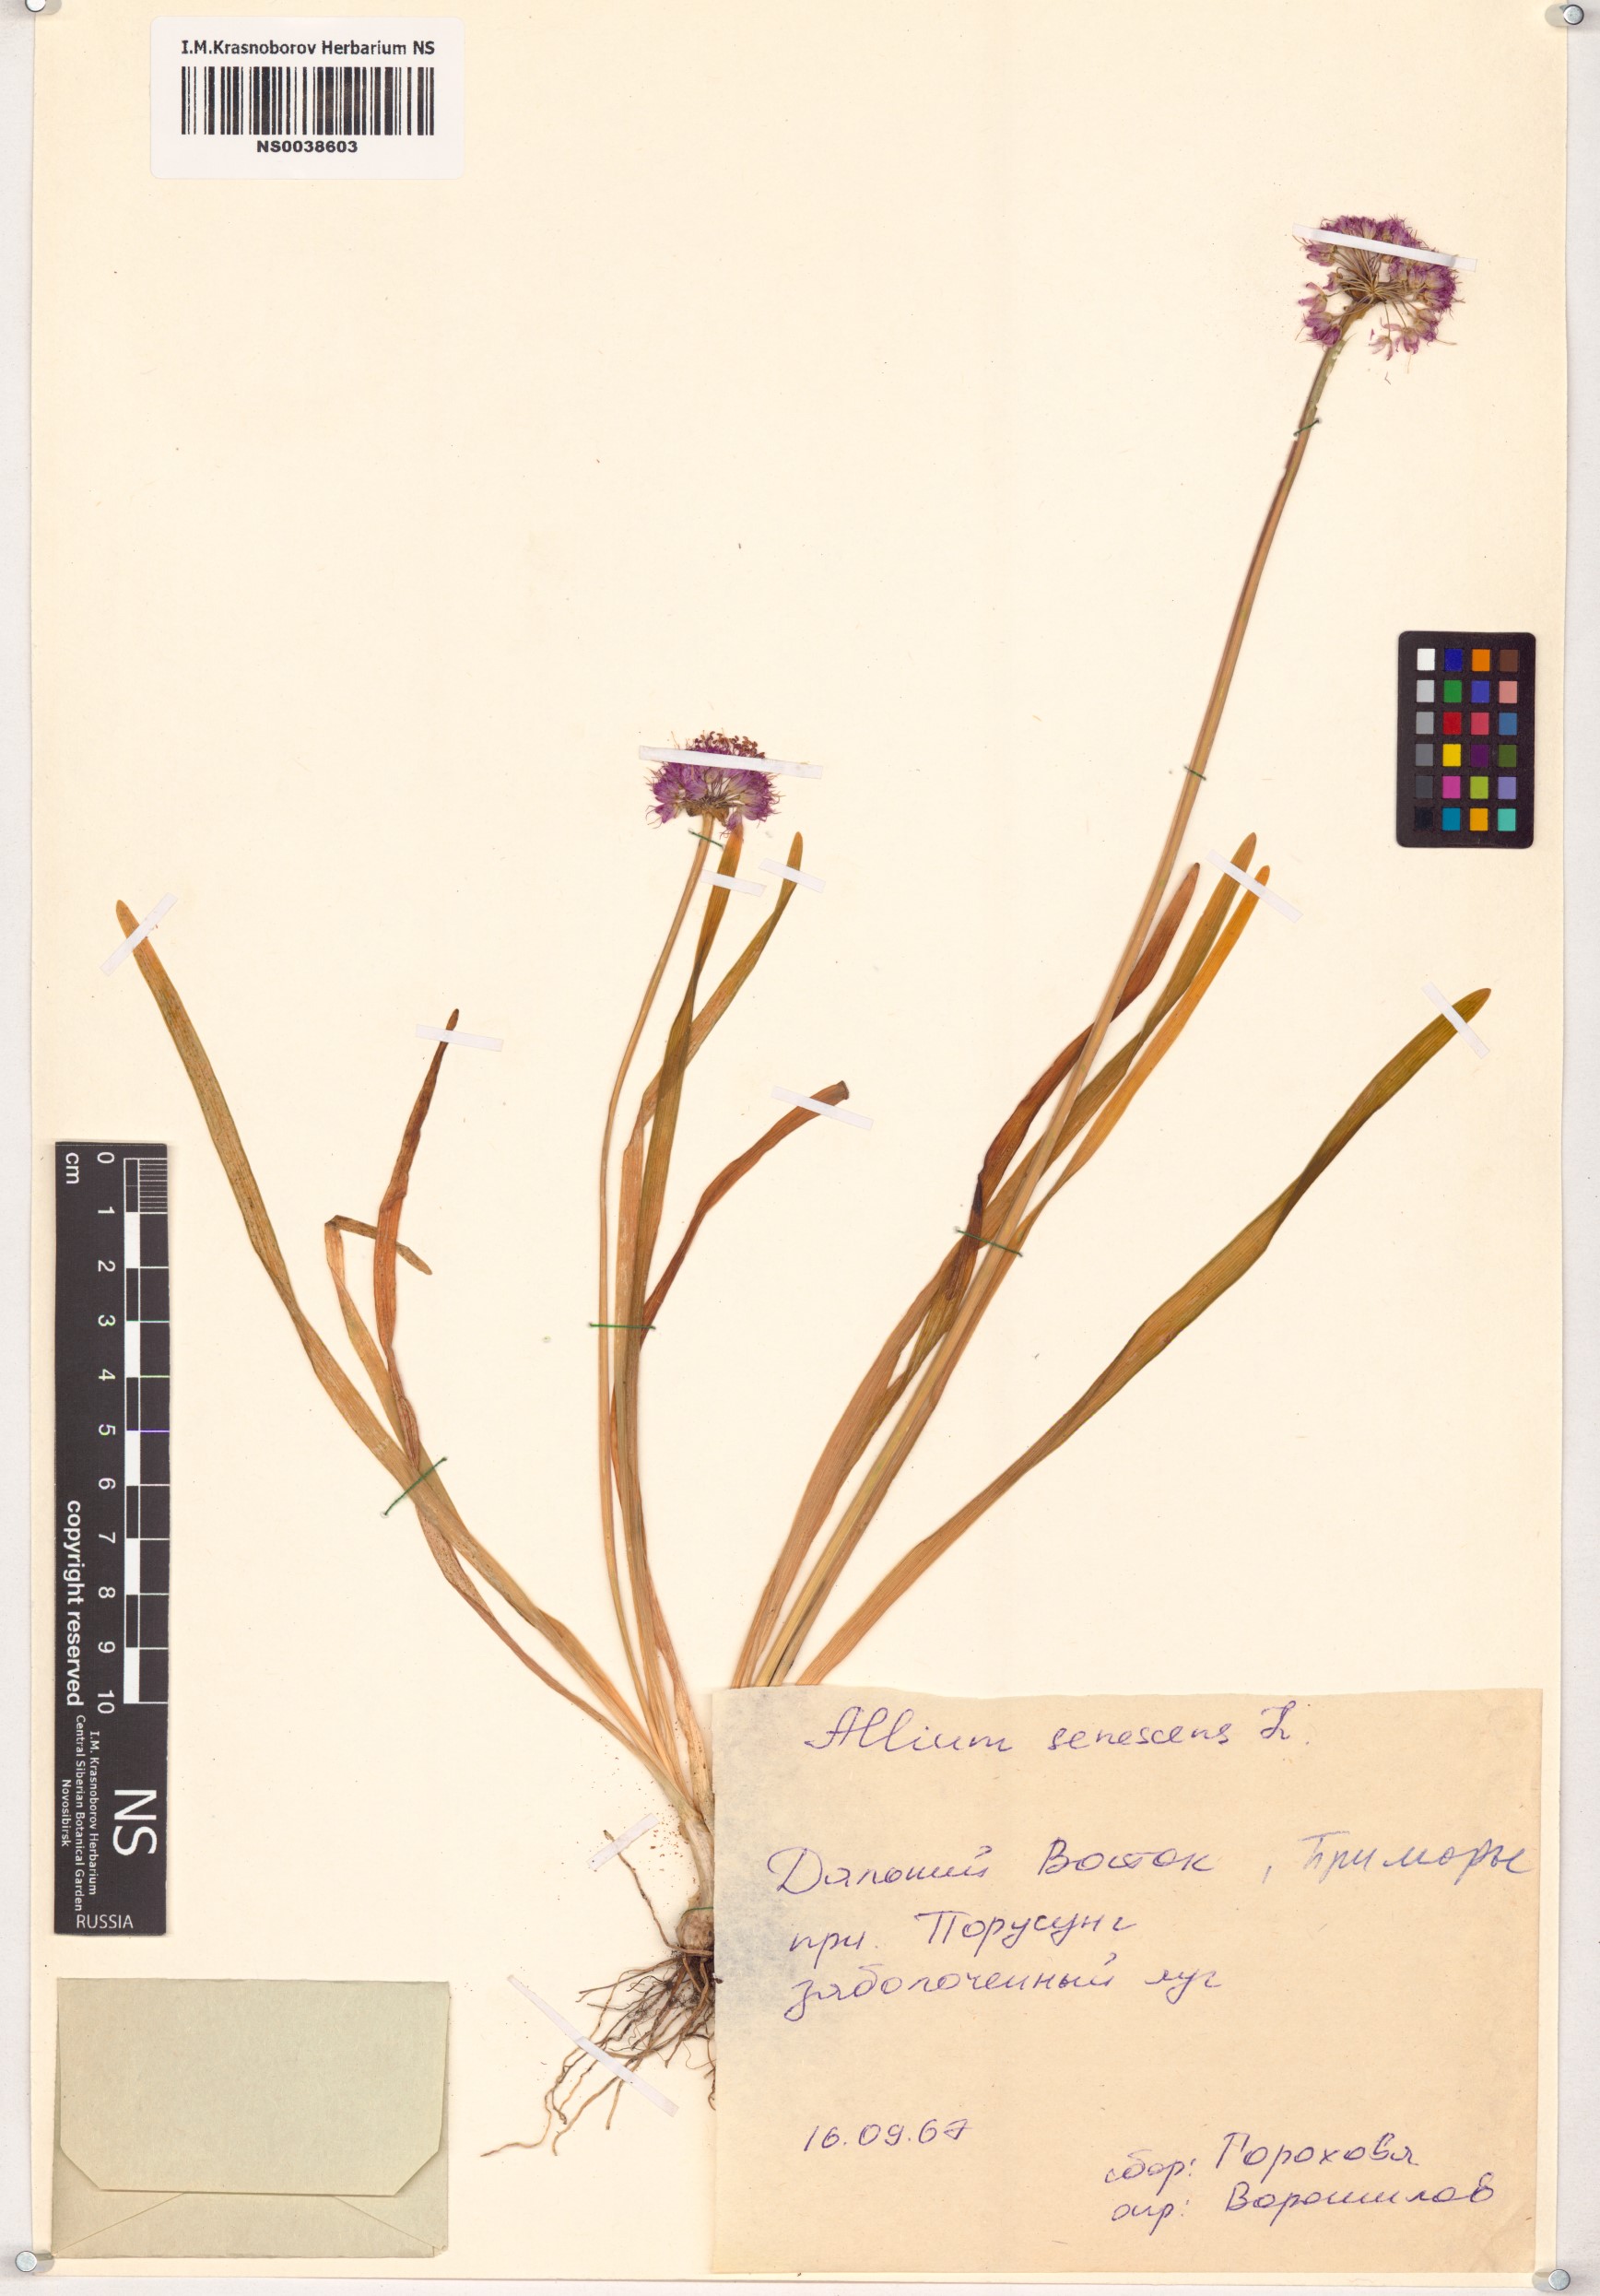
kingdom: Plantae
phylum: Tracheophyta
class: Liliopsida
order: Asparagales
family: Amaryllidaceae
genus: Allium
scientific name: Allium senescens
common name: German garlic
